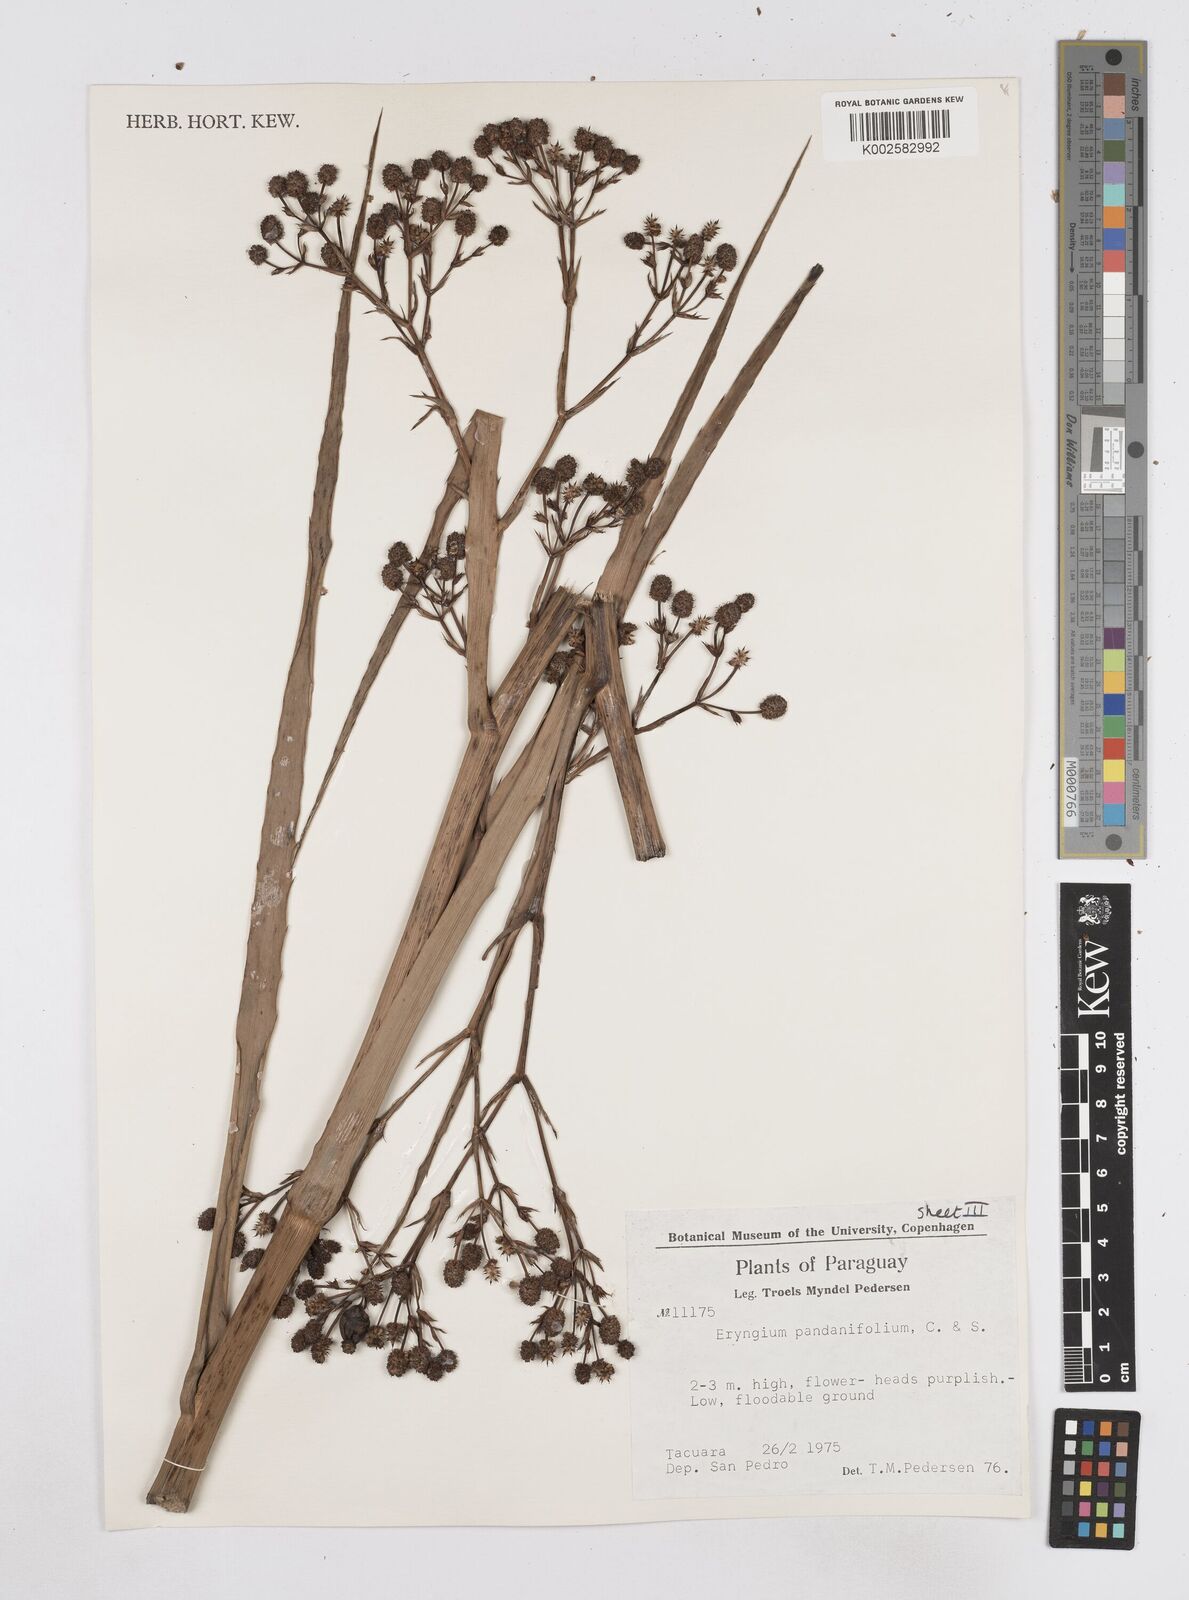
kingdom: Plantae
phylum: Tracheophyta
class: Magnoliopsida
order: Apiales
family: Apiaceae
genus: Eryngium
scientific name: Eryngium pandanifolium
